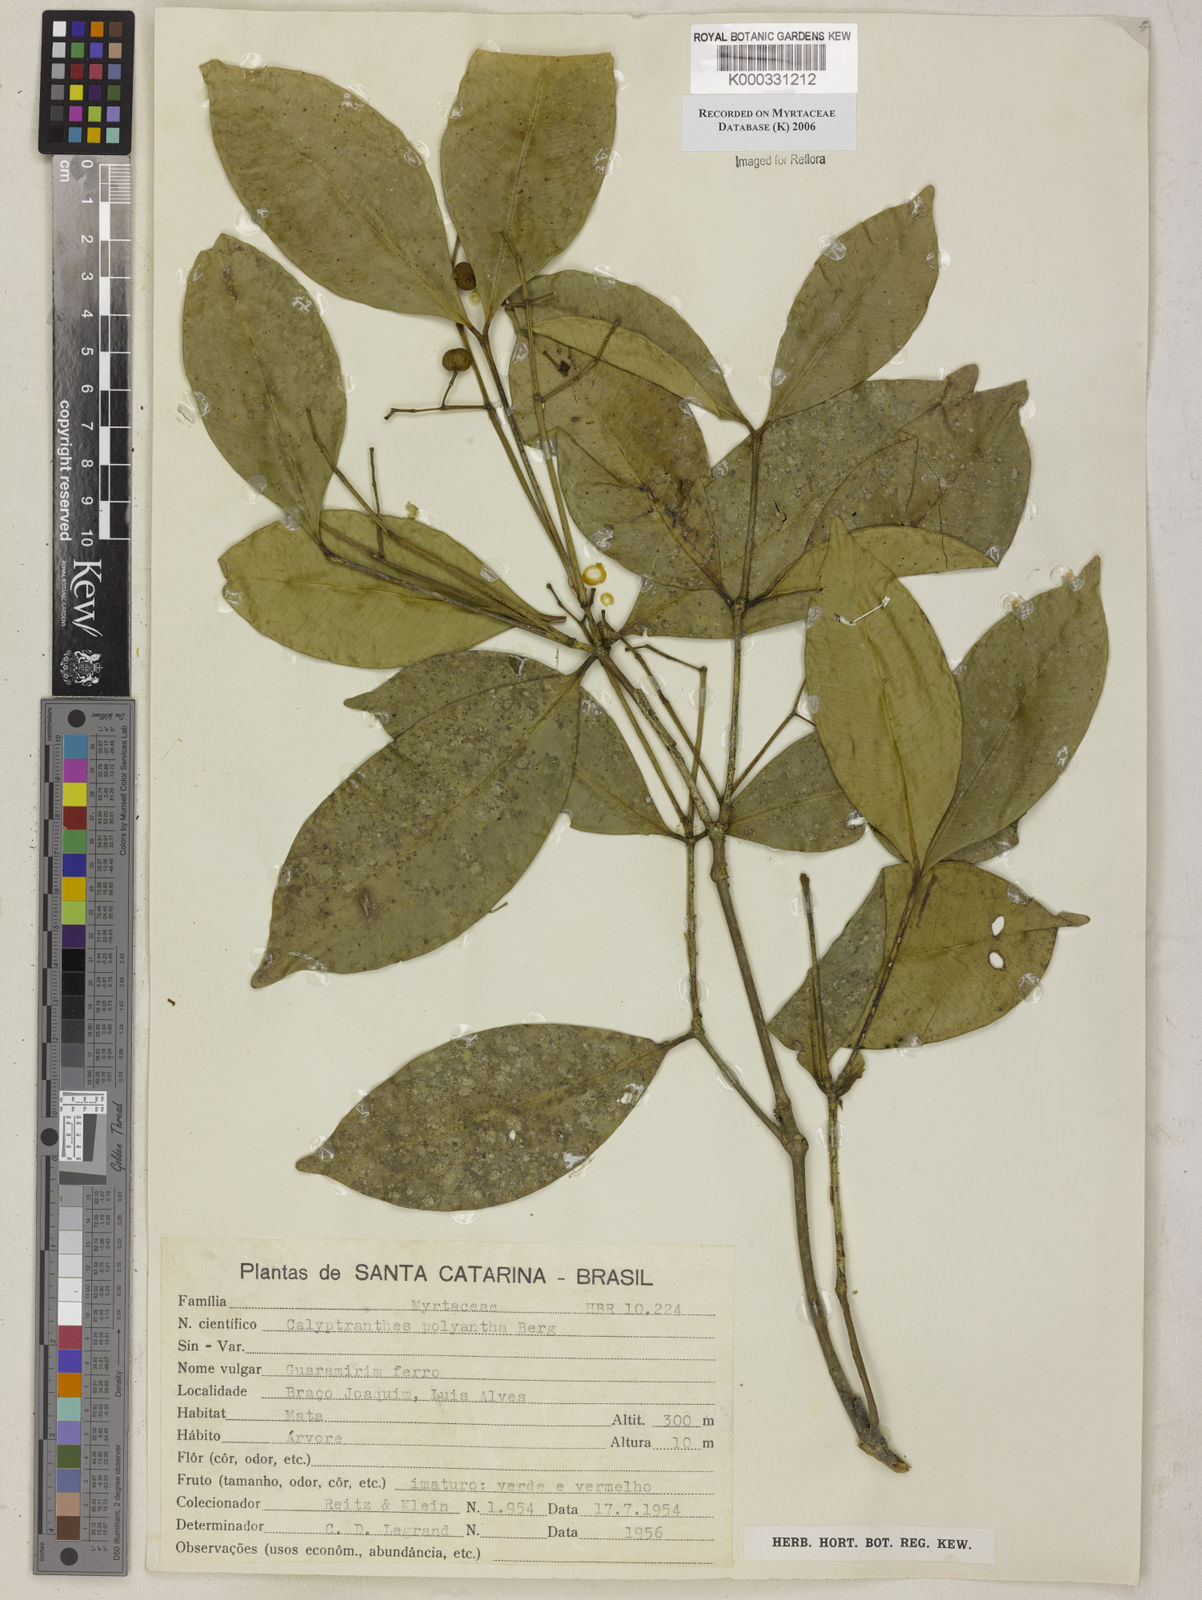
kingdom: Plantae
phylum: Tracheophyta
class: Magnoliopsida
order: Myrtales
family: Myrtaceae
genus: Myrcia
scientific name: Myrcia neolucida
